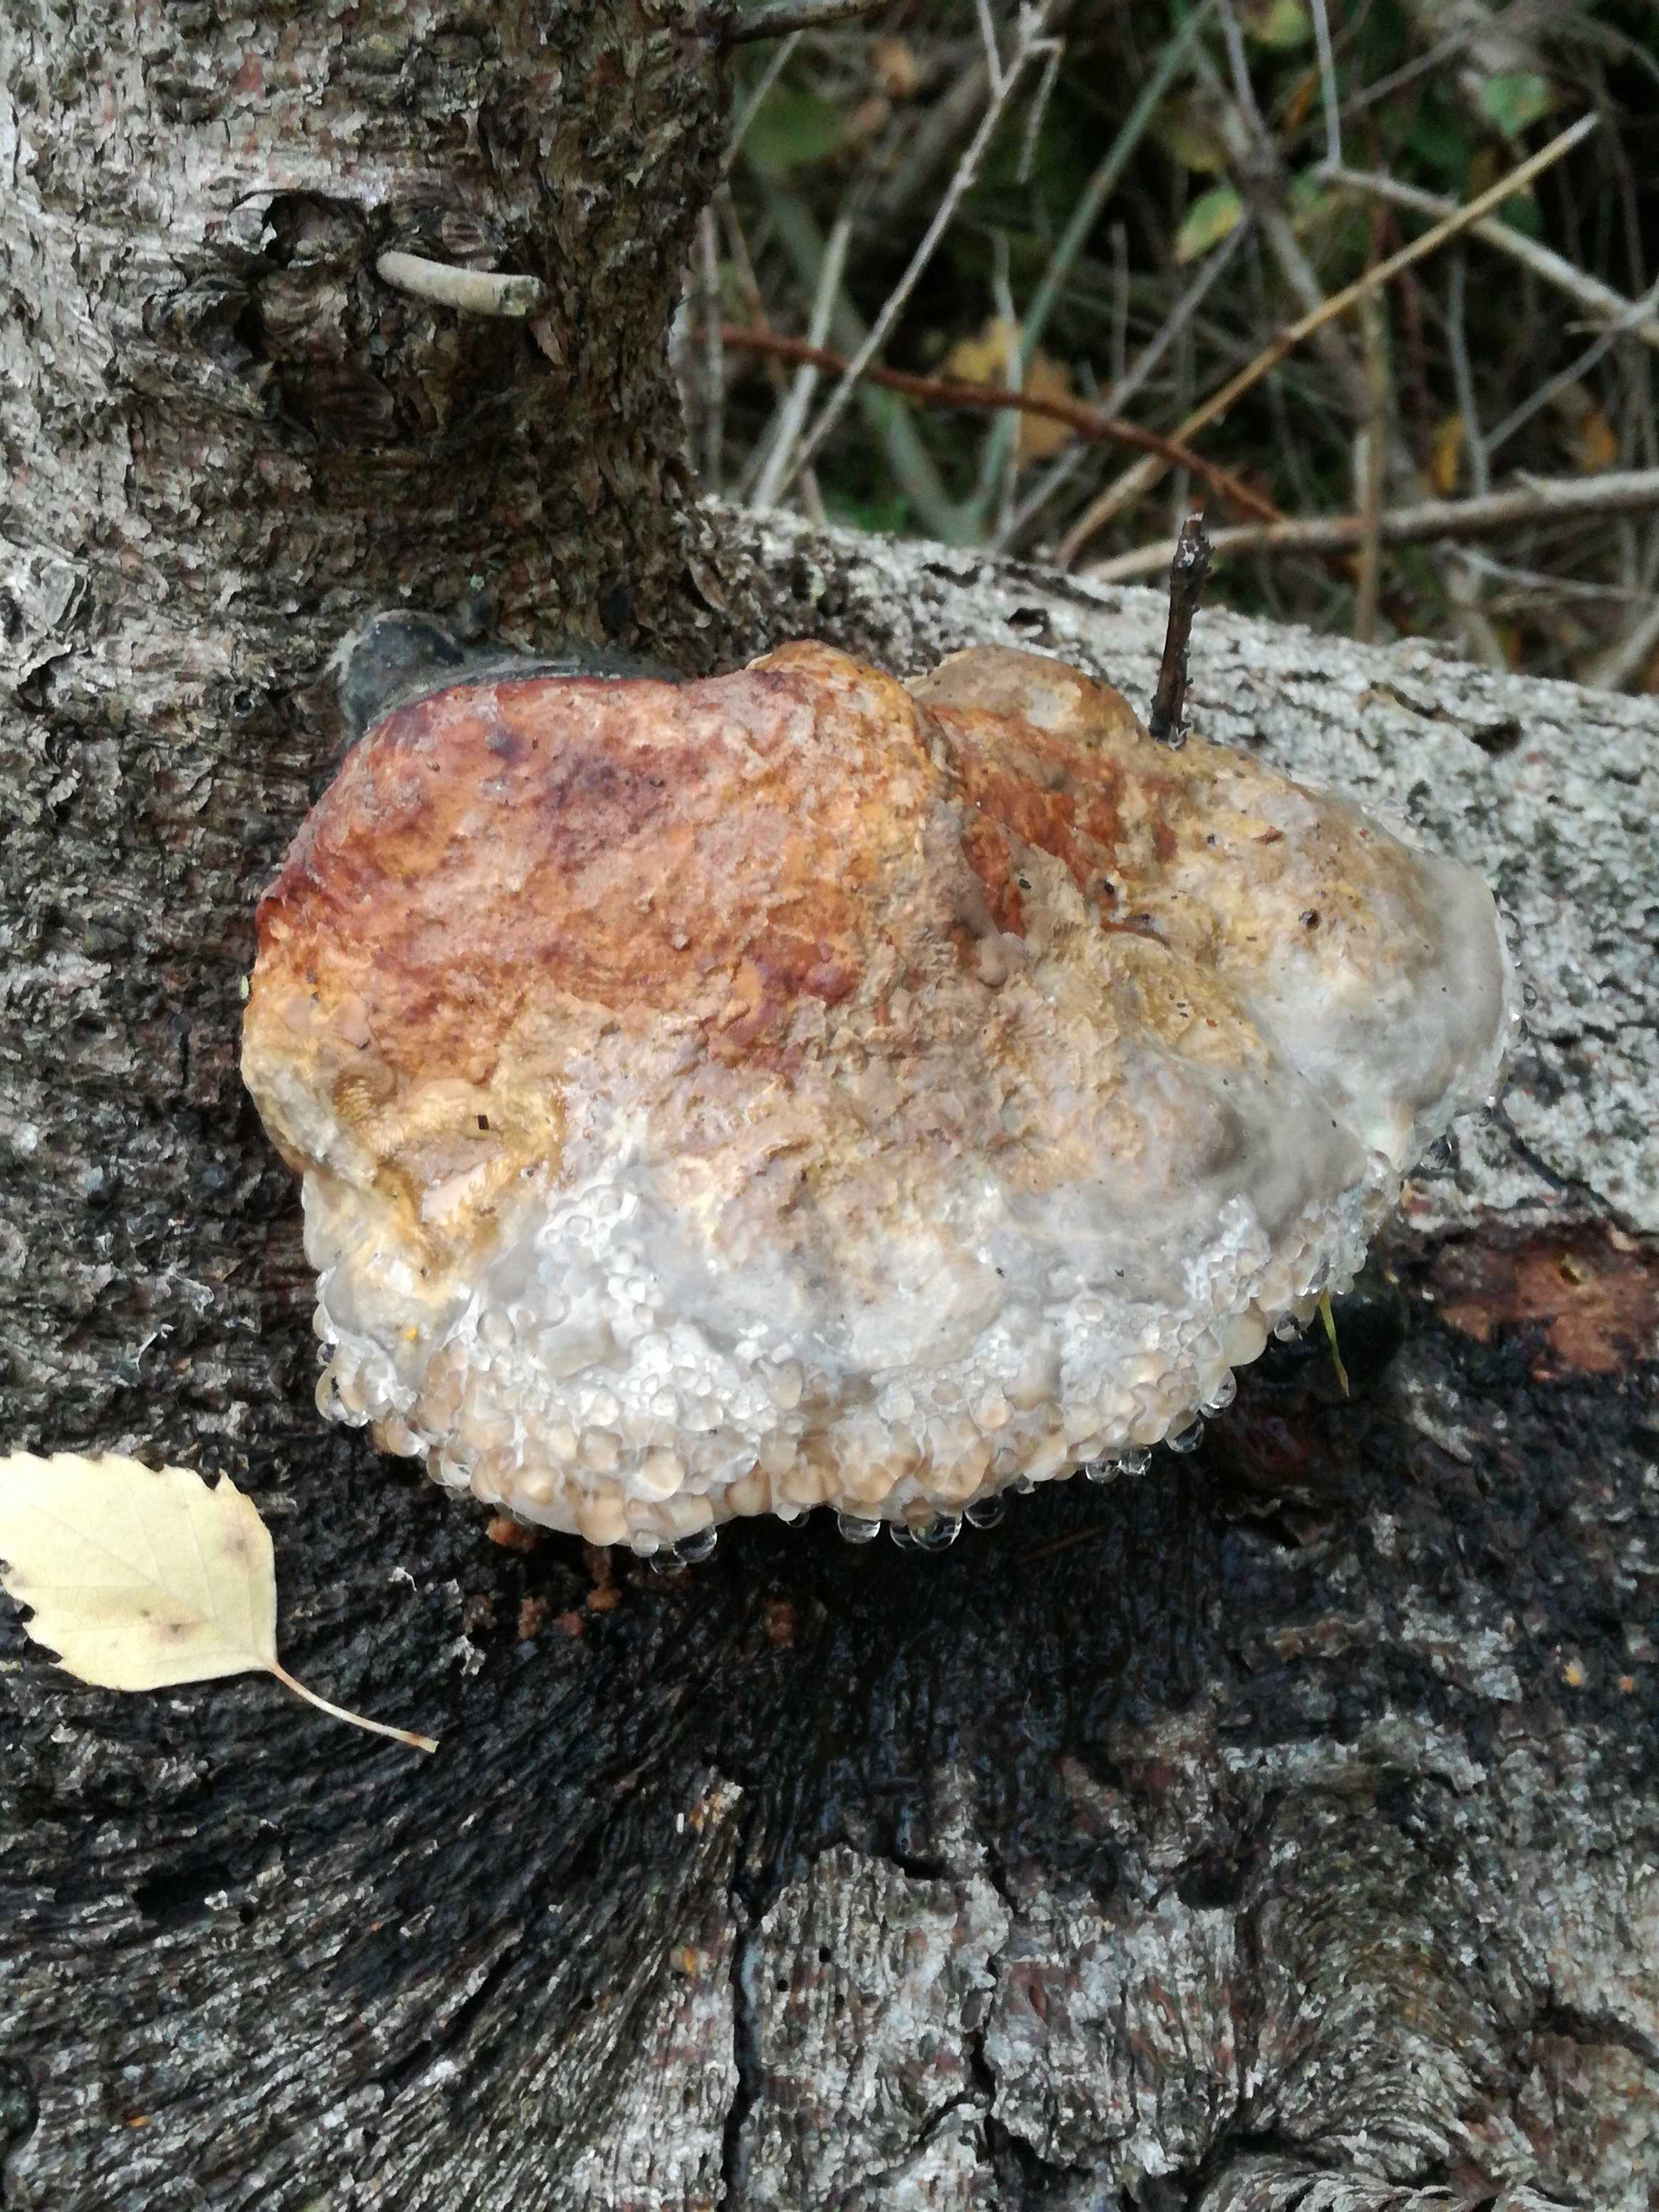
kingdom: Fungi
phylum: Basidiomycota
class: Agaricomycetes
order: Polyporales
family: Fomitopsidaceae
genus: Fomitopsis
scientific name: Fomitopsis pinicola
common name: randbæltet hovporesvamp
